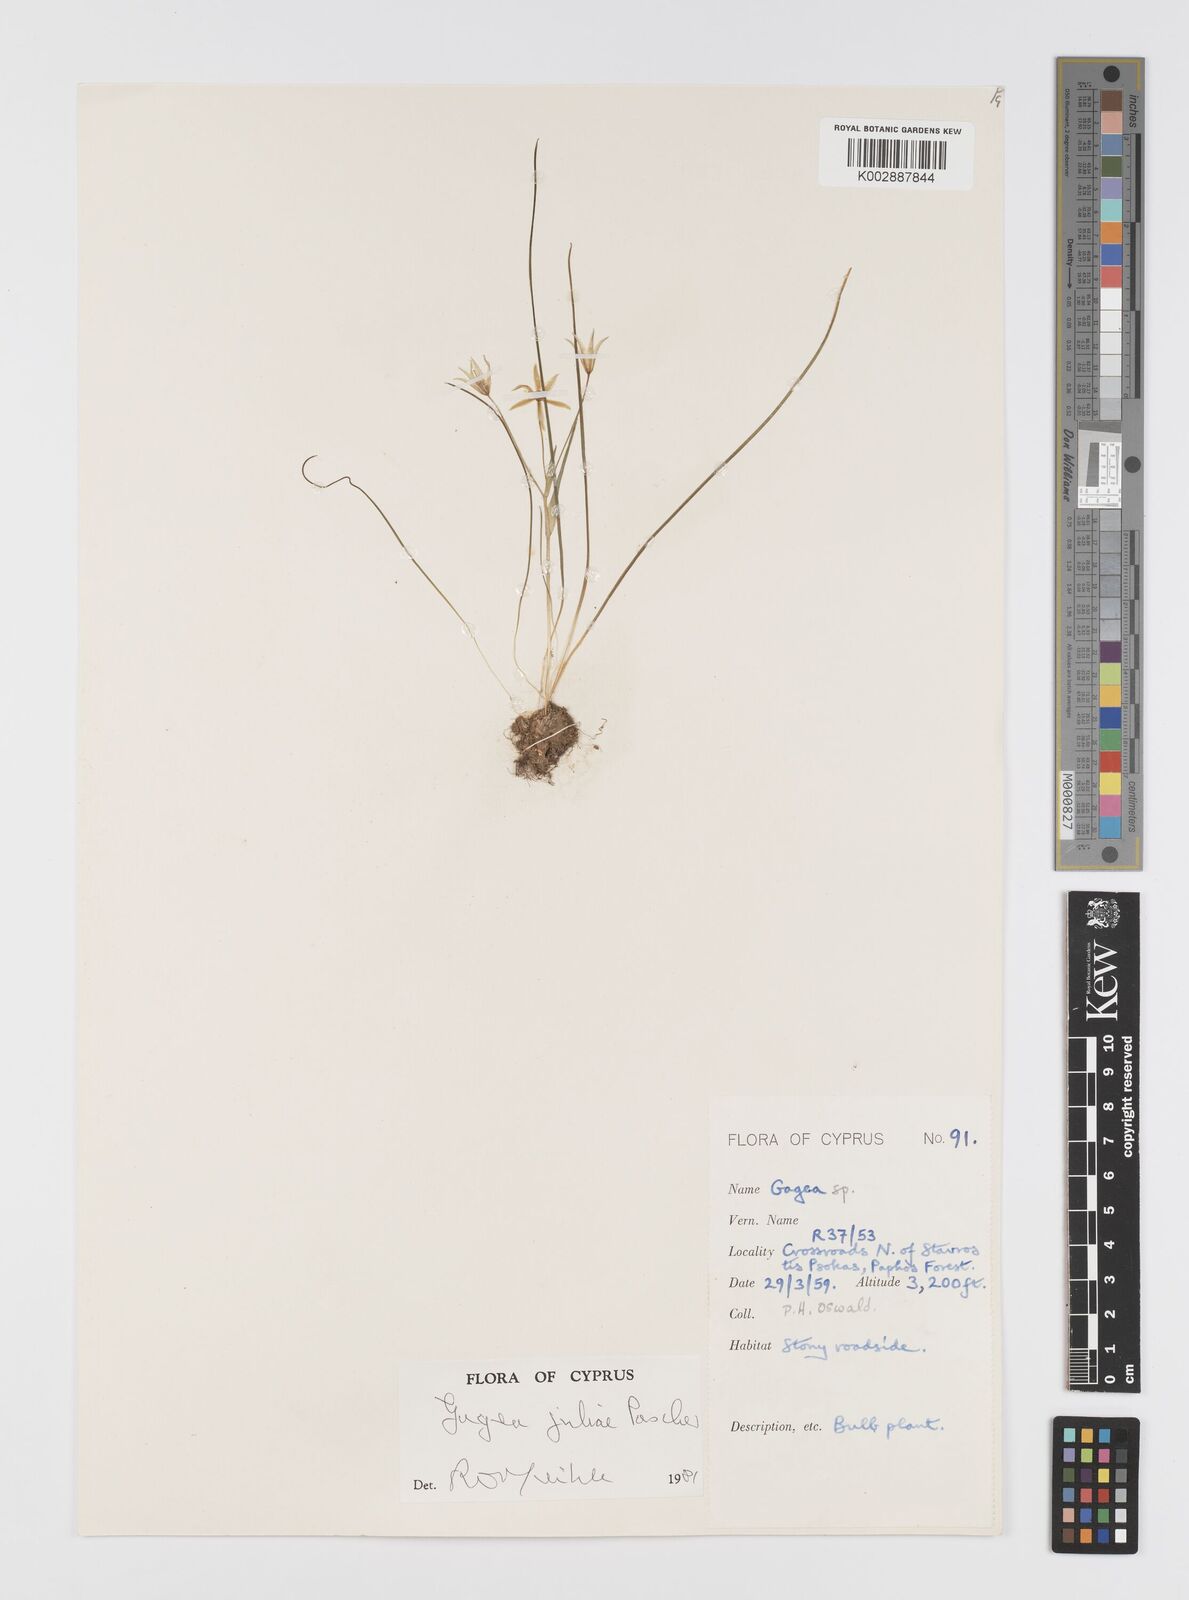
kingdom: Plantae
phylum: Tracheophyta
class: Liliopsida
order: Liliales
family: Liliaceae
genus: Gagea
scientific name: Gagea juliae
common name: Julia’s gagea
